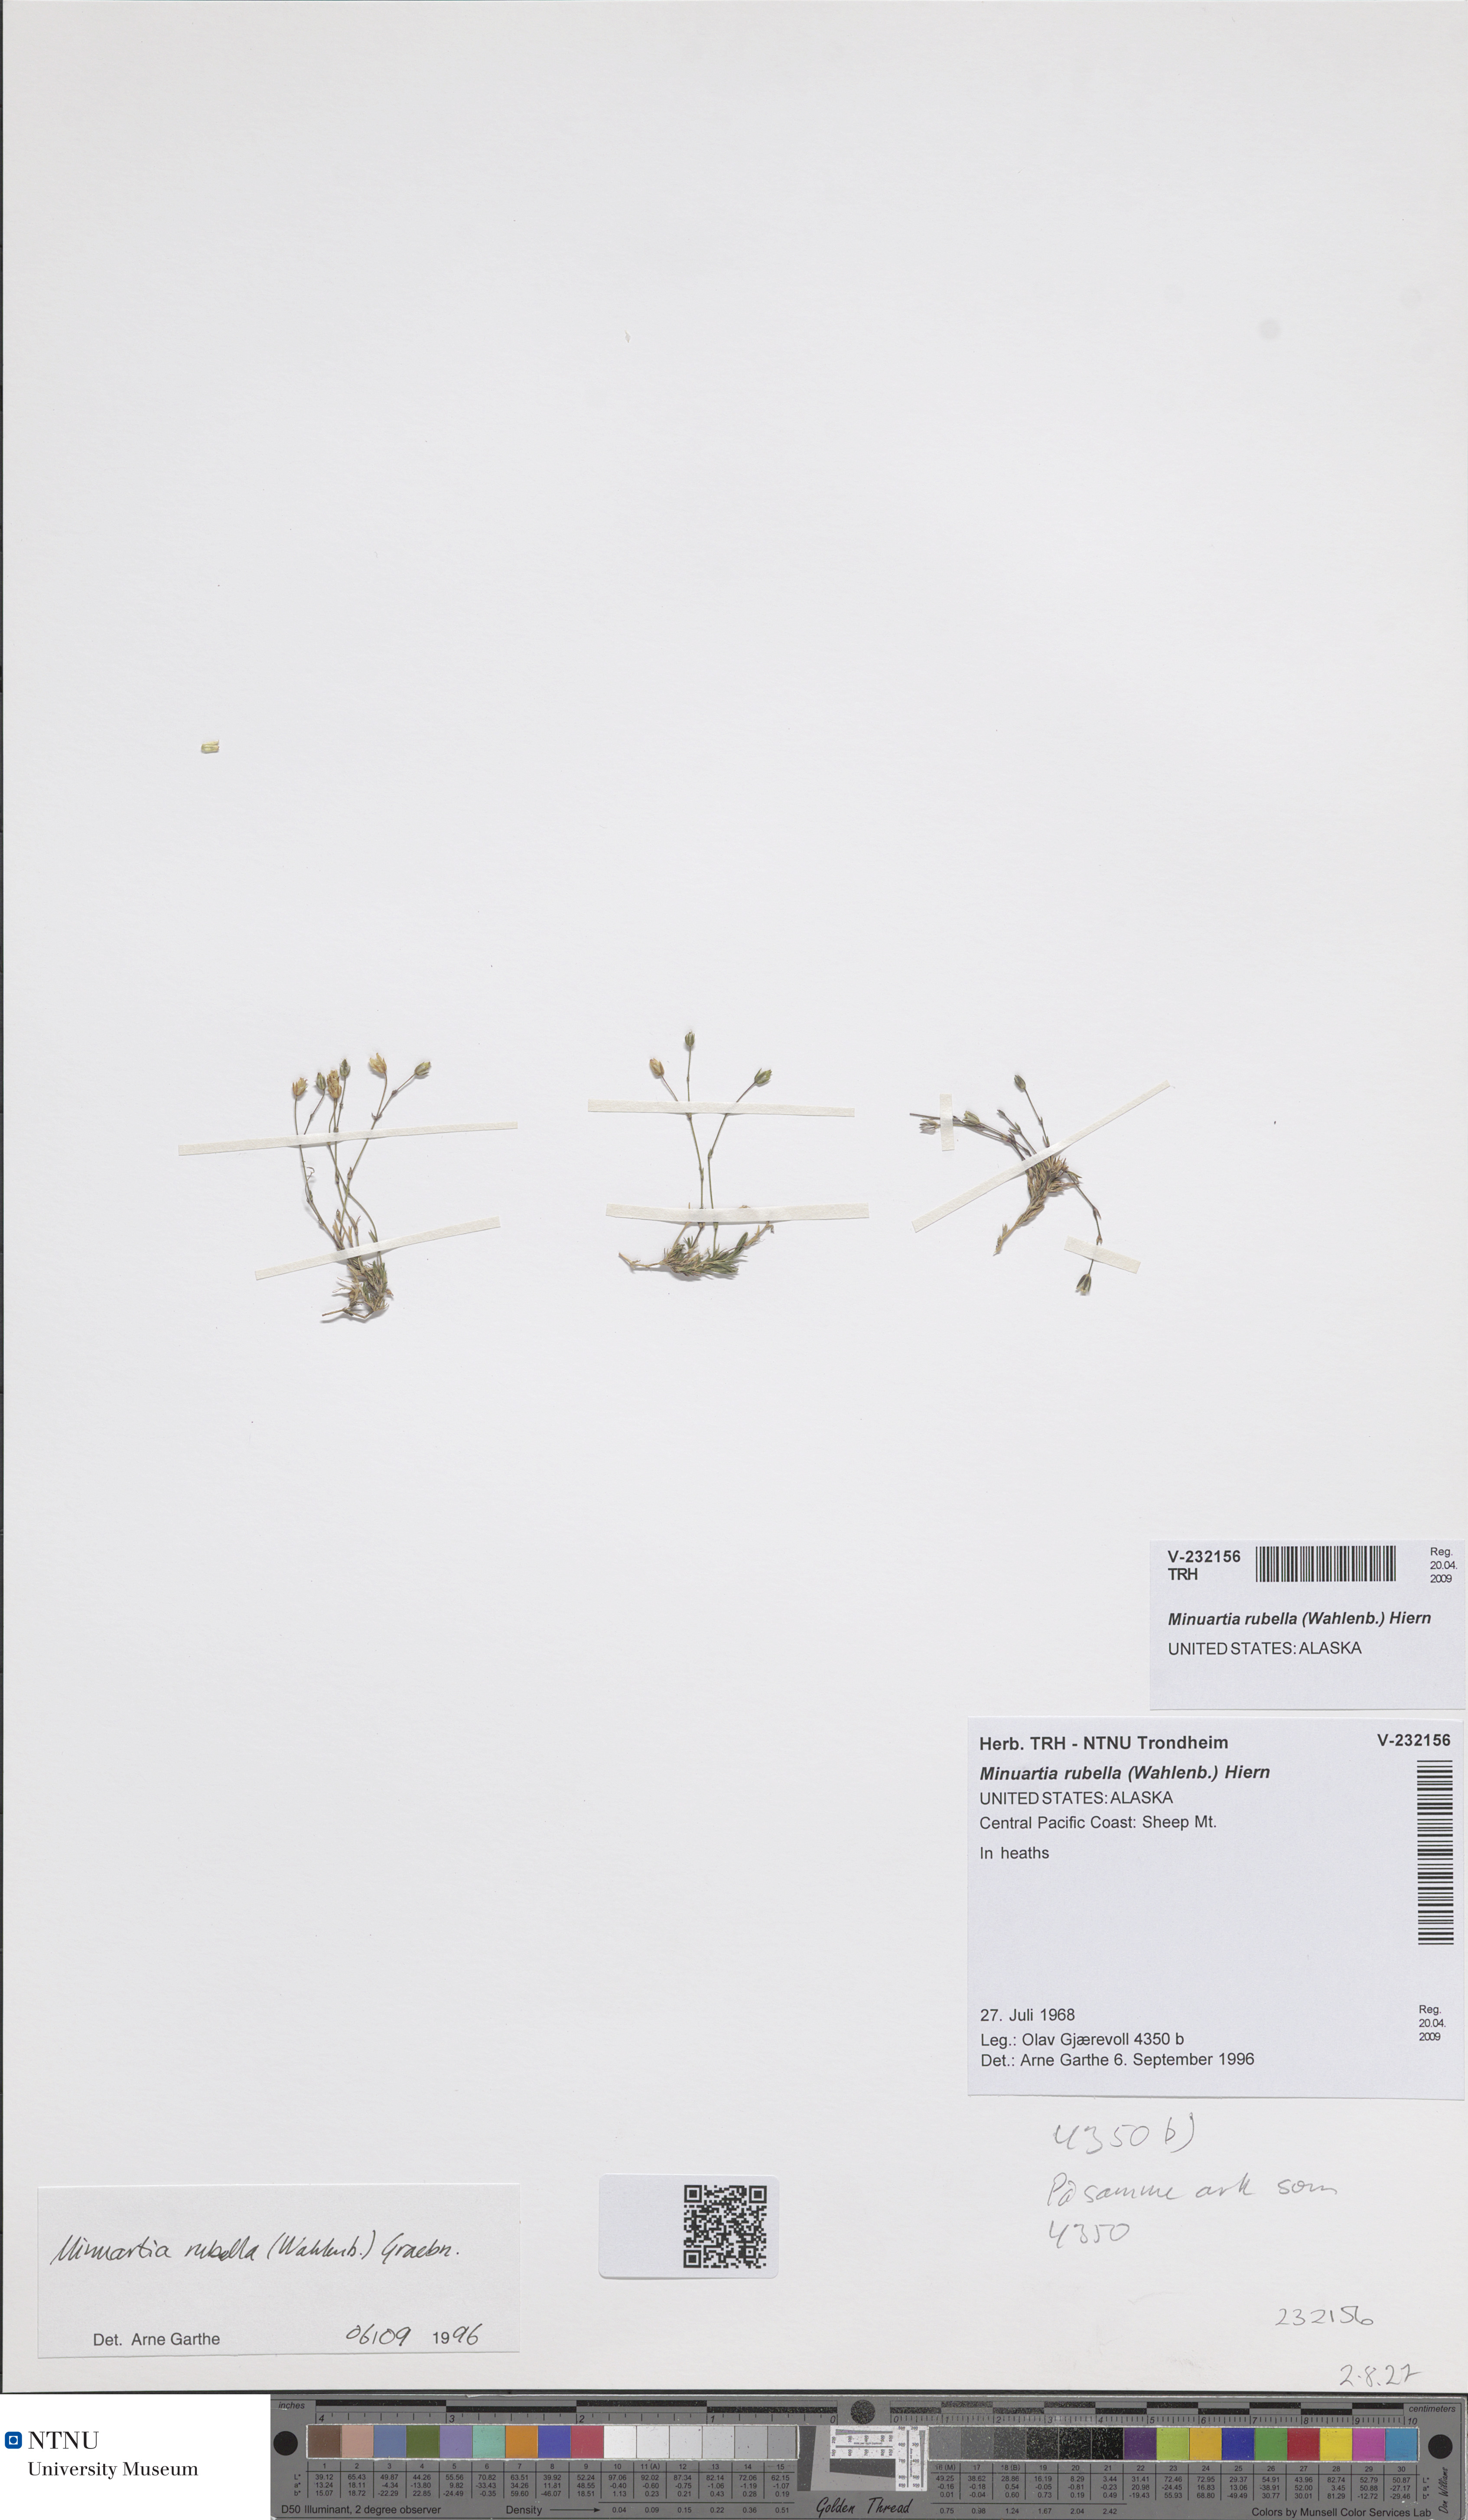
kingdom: Plantae
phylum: Tracheophyta
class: Magnoliopsida
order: Caryophyllales
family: Caryophyllaceae
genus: Sabulina
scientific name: Sabulina rubella
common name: Beautiful sandwort
